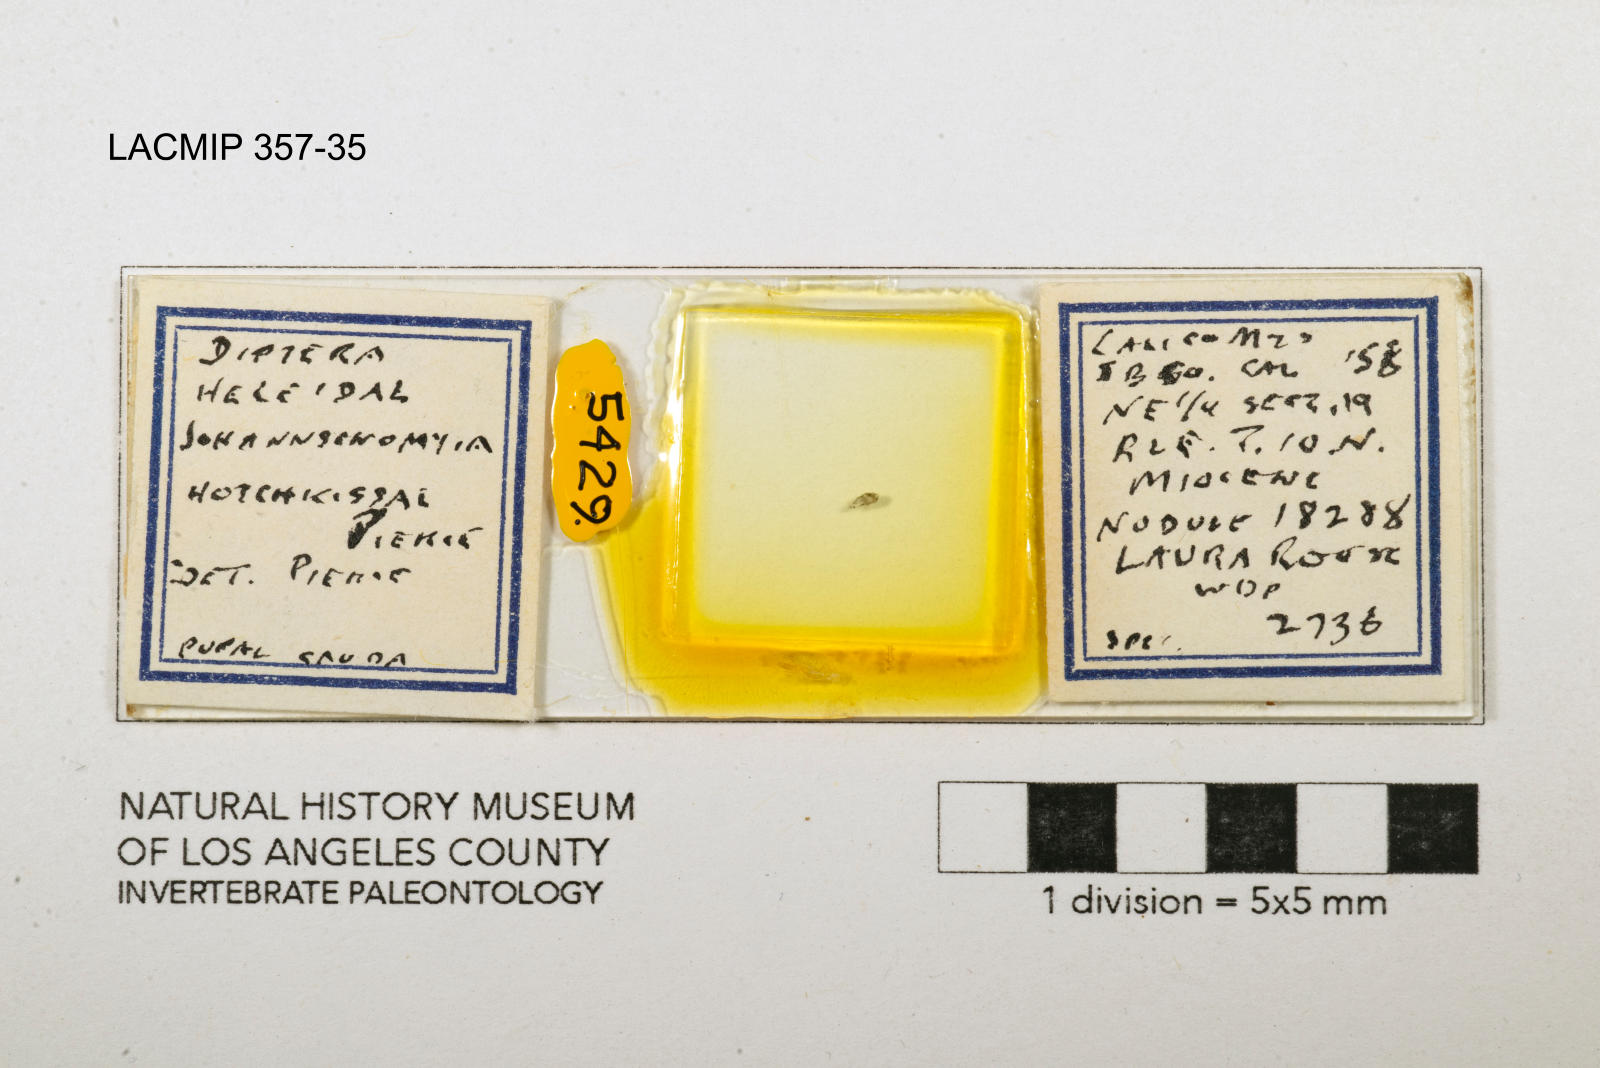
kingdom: Animalia
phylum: Arthropoda
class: Insecta
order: Diptera
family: Ceratopogonidae
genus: Johannsenomyia
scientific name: Johannsenomyia
